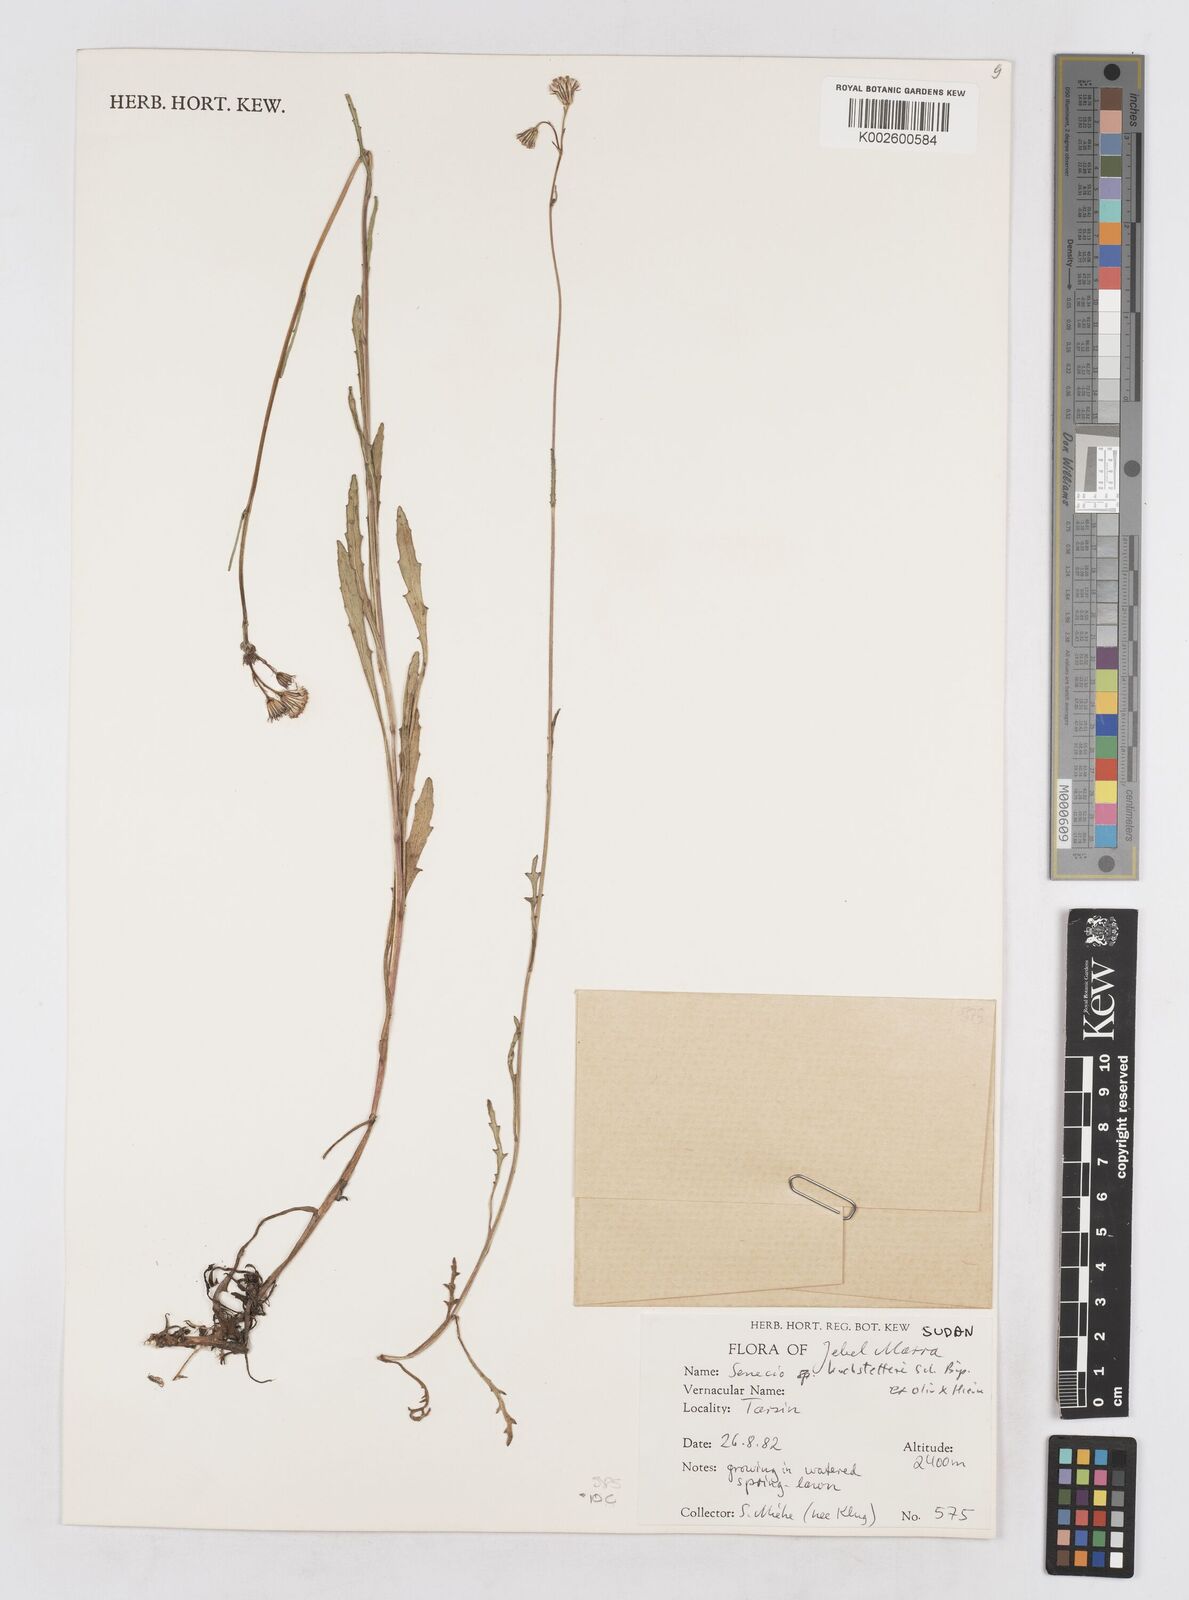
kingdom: Plantae
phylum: Tracheophyta
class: Magnoliopsida
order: Asterales
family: Asteraceae
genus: Senecio
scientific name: Senecio hochstetteri
